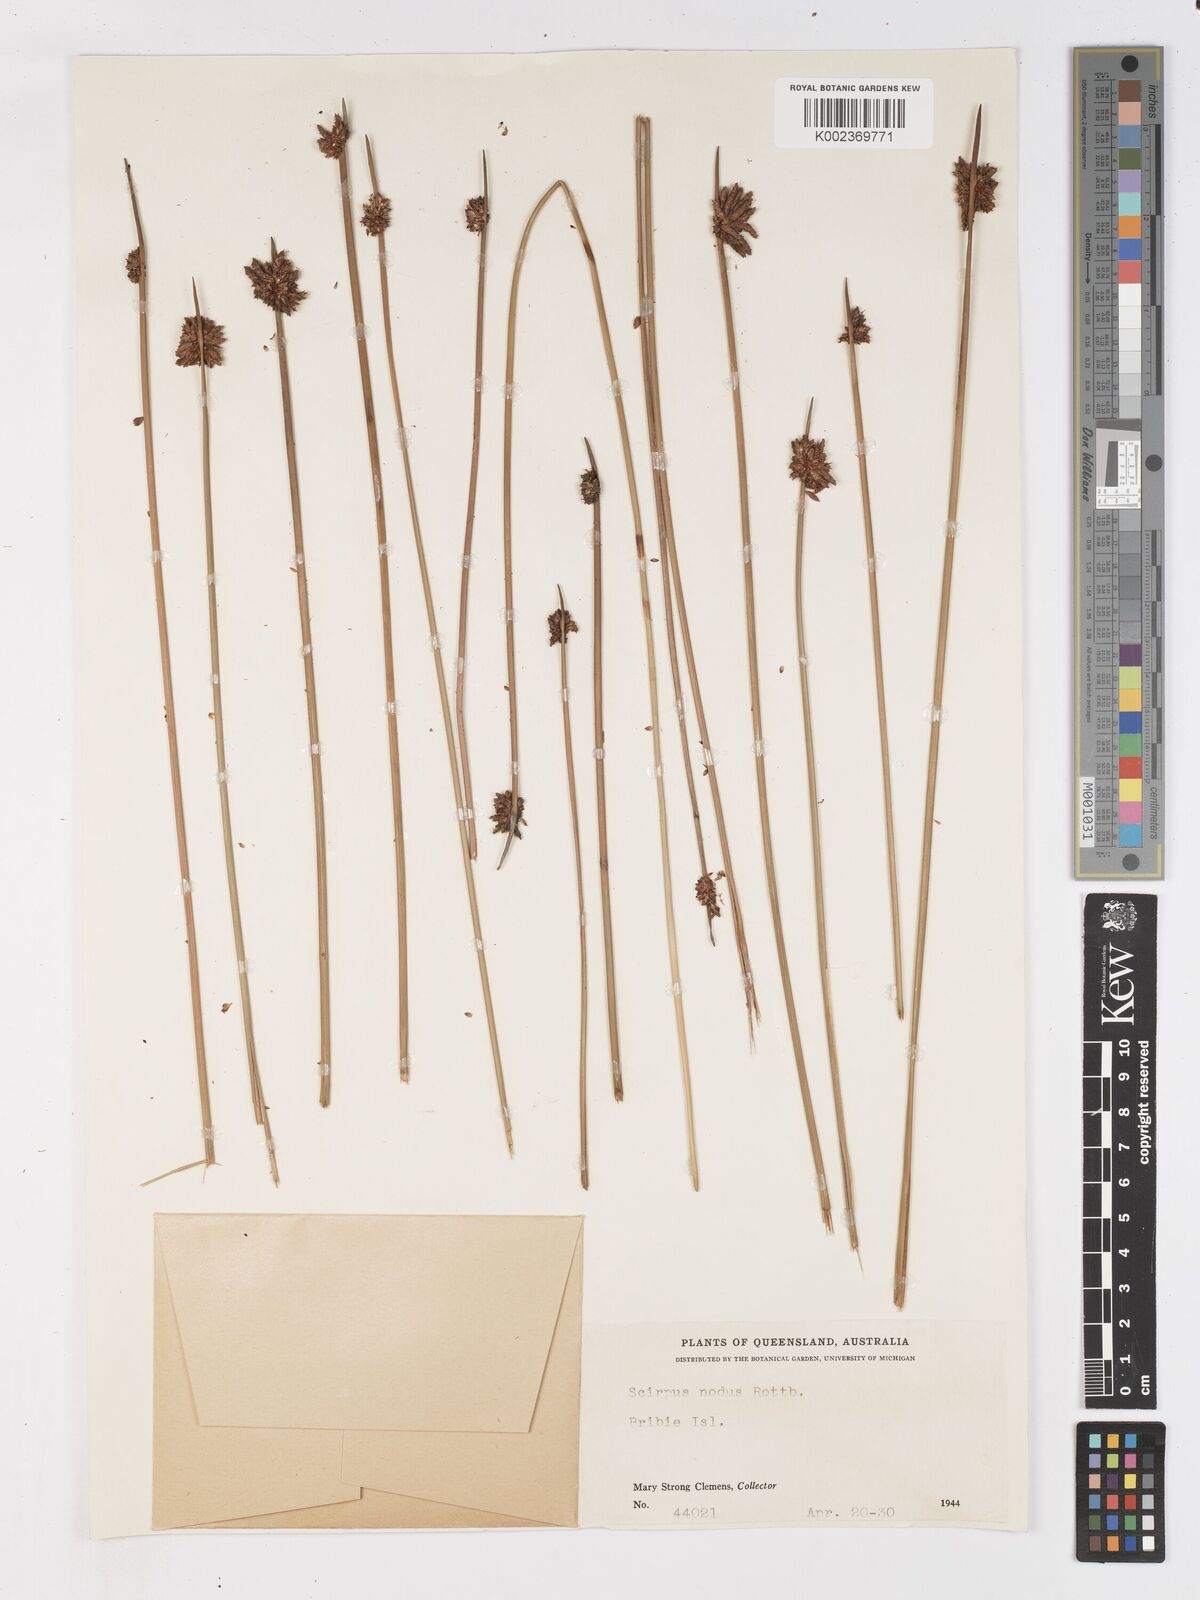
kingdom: Plantae
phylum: Tracheophyta
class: Liliopsida
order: Poales
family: Cyperaceae
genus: Ficinia
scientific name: Ficinia nodosa
